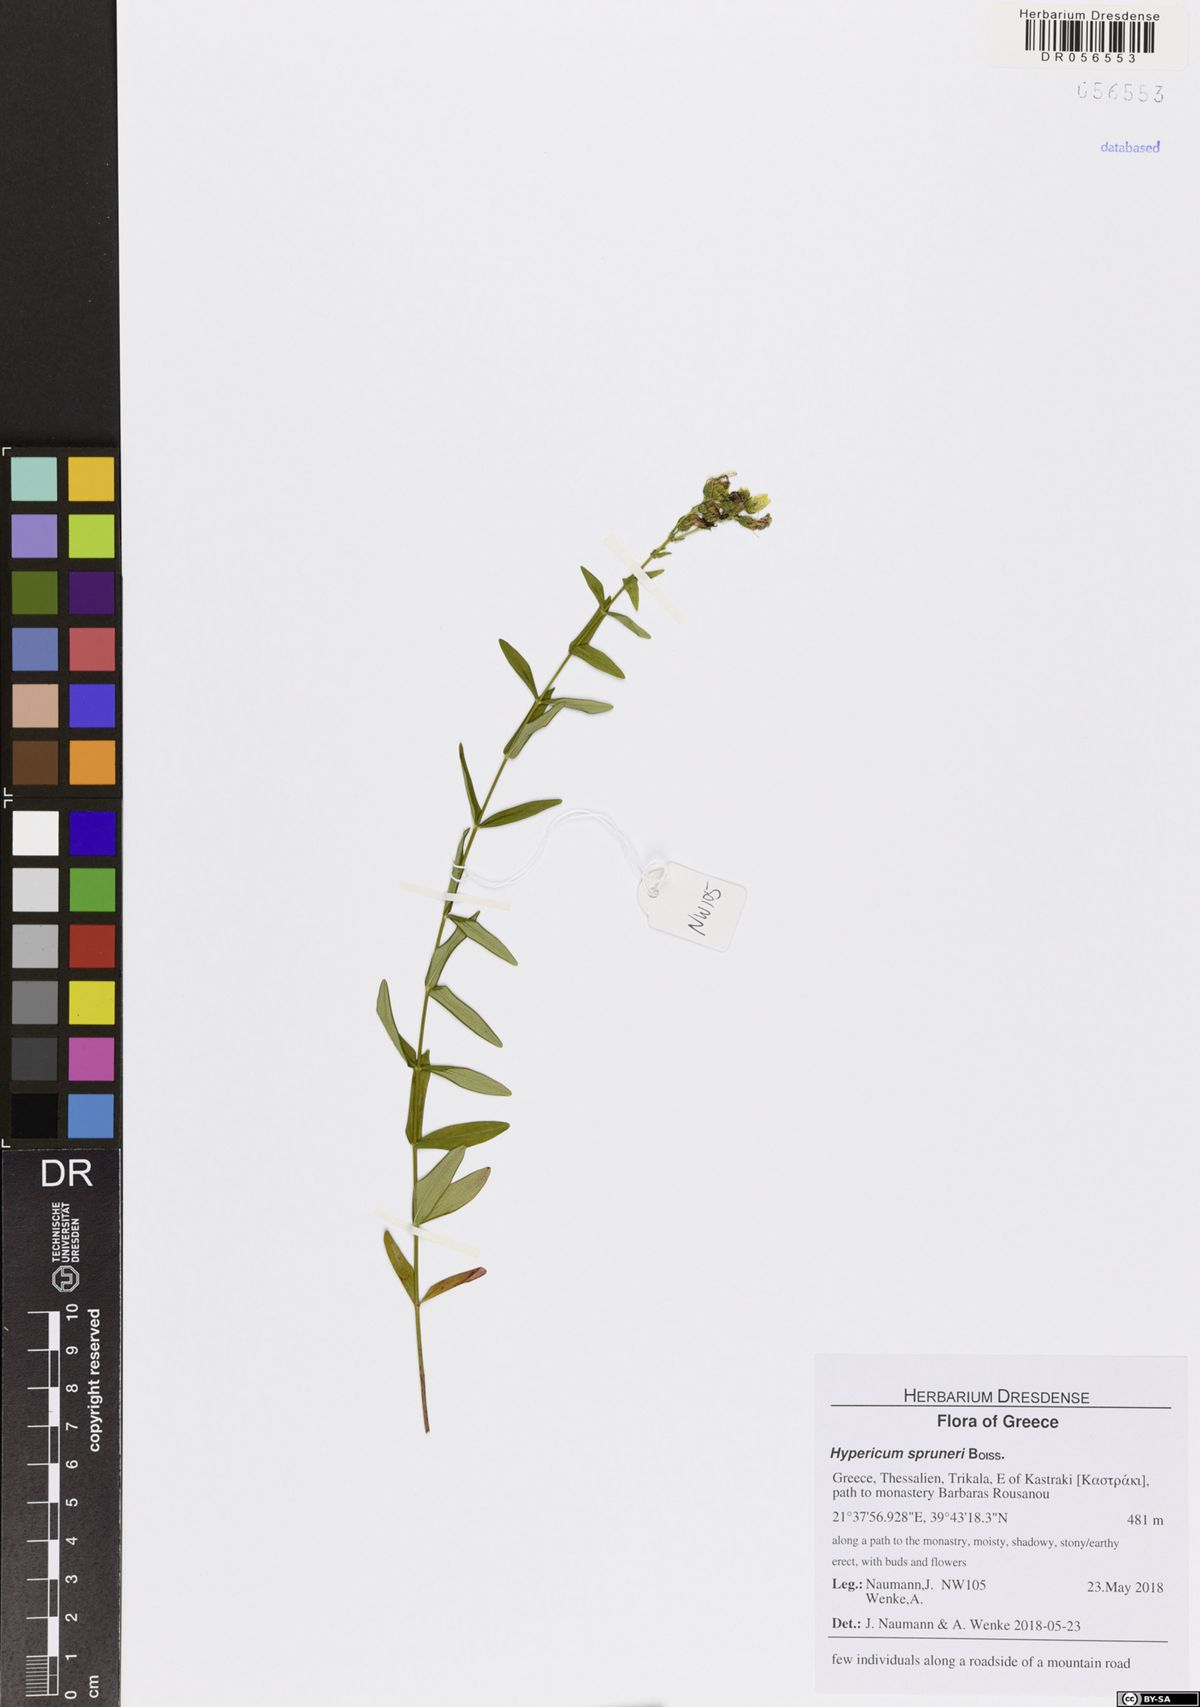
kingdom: Plantae
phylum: Tracheophyta
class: Magnoliopsida
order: Malpighiales
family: Hypericaceae
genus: Hypericum
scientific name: Hypericum spruneri
